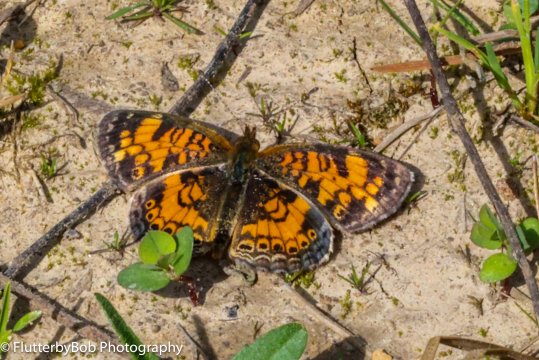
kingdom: Animalia
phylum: Arthropoda
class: Insecta
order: Lepidoptera
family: Nymphalidae
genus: Phyciodes
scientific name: Phyciodes tharos
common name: Pearl Crescent
